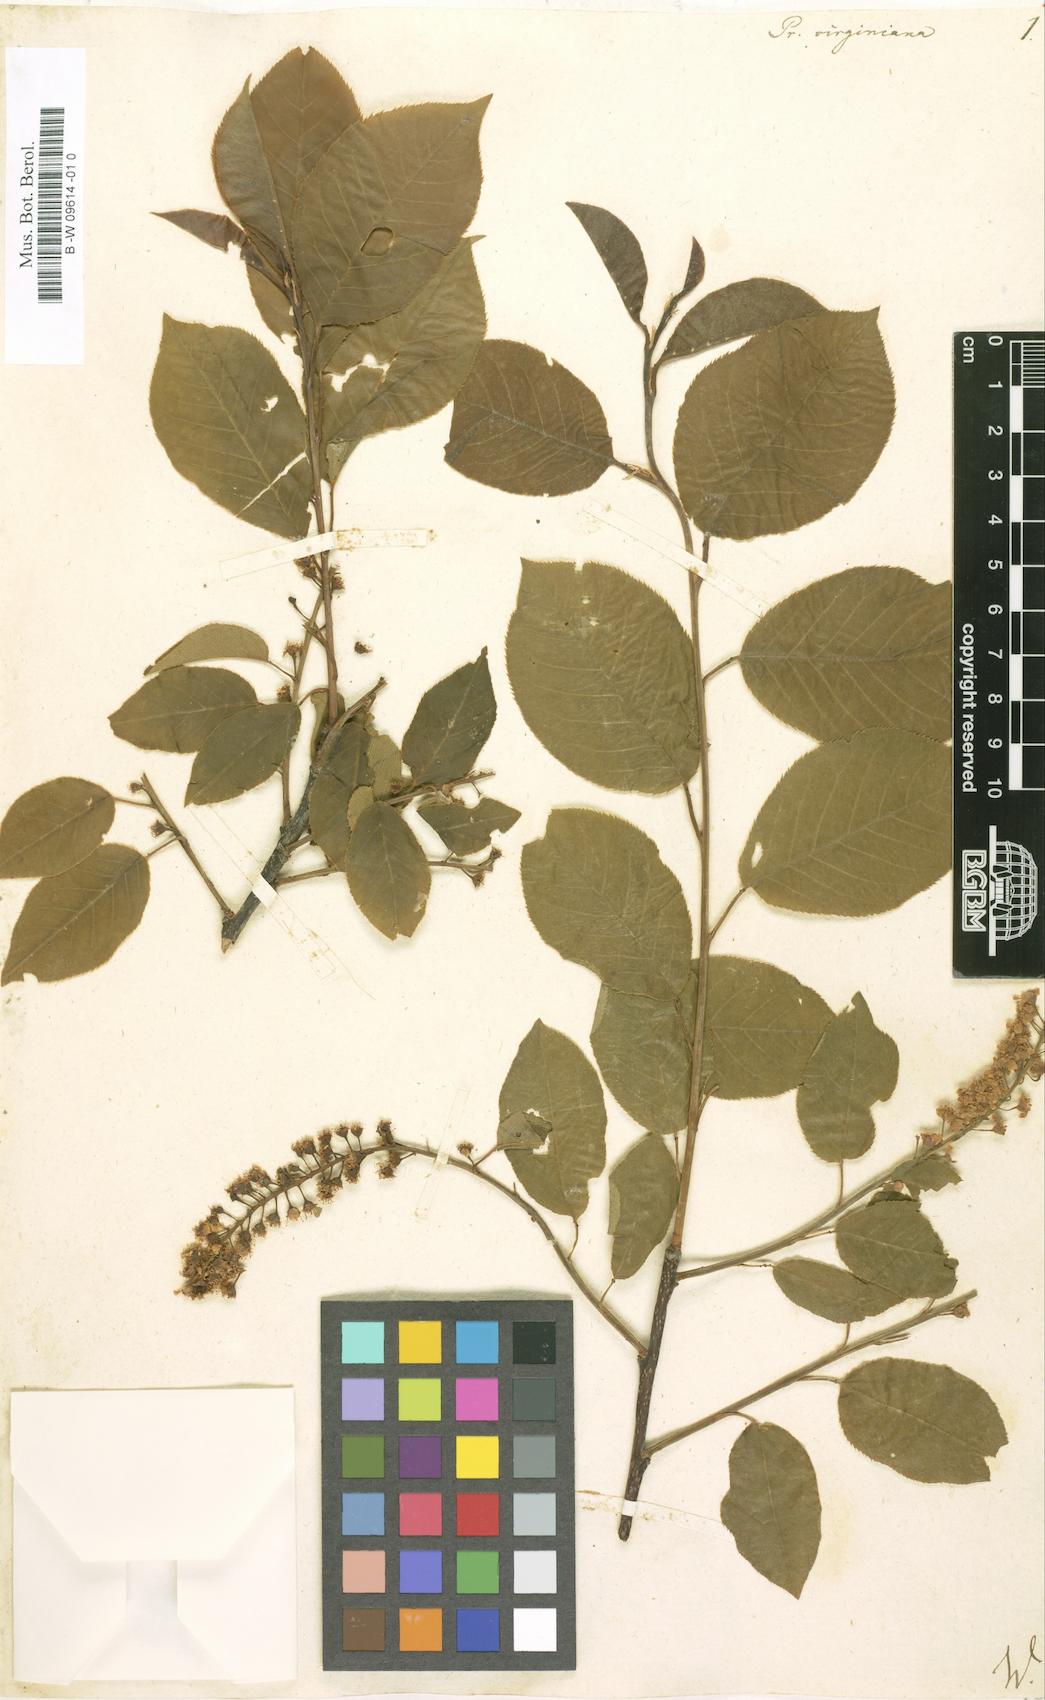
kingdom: Plantae
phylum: Tracheophyta
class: Magnoliopsida
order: Rosales
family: Rosaceae
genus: Prunus
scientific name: Prunus virginiana
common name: Chokecherry
